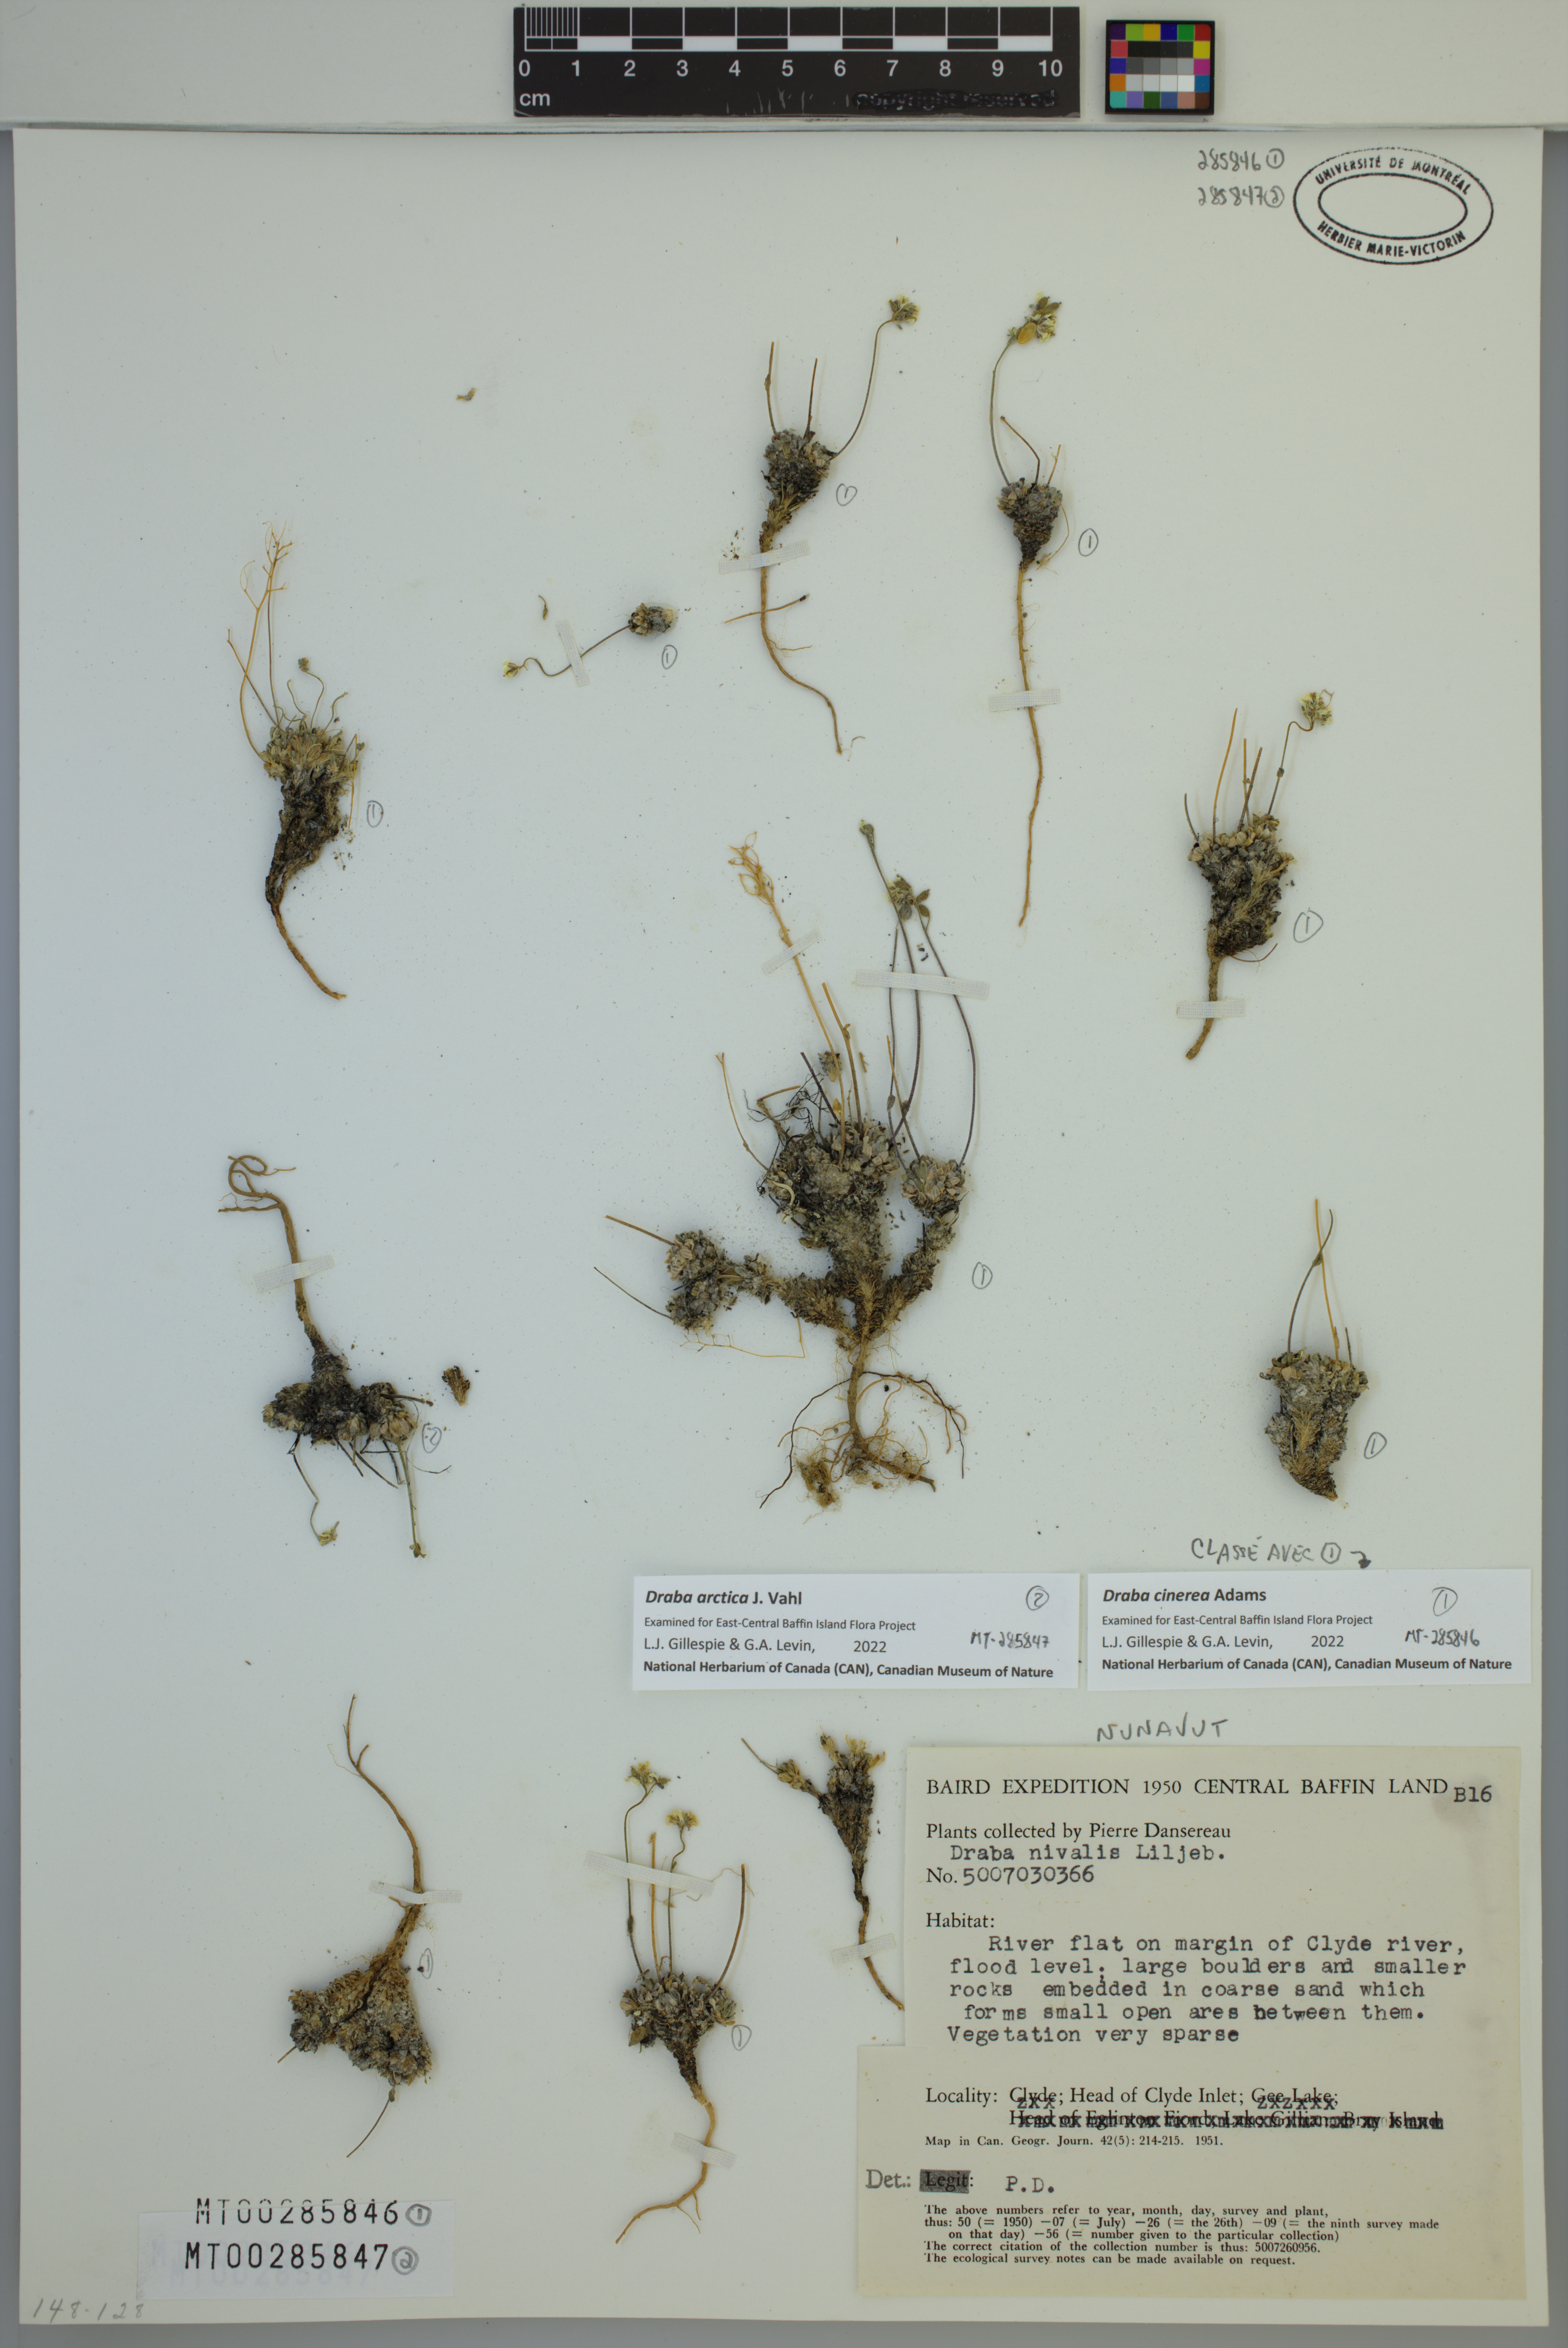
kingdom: Plantae
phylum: Tracheophyta
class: Magnoliopsida
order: Brassicales
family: Brassicaceae
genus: Draba
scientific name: Draba cinerea
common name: Ash-coloured whitlow-grass
